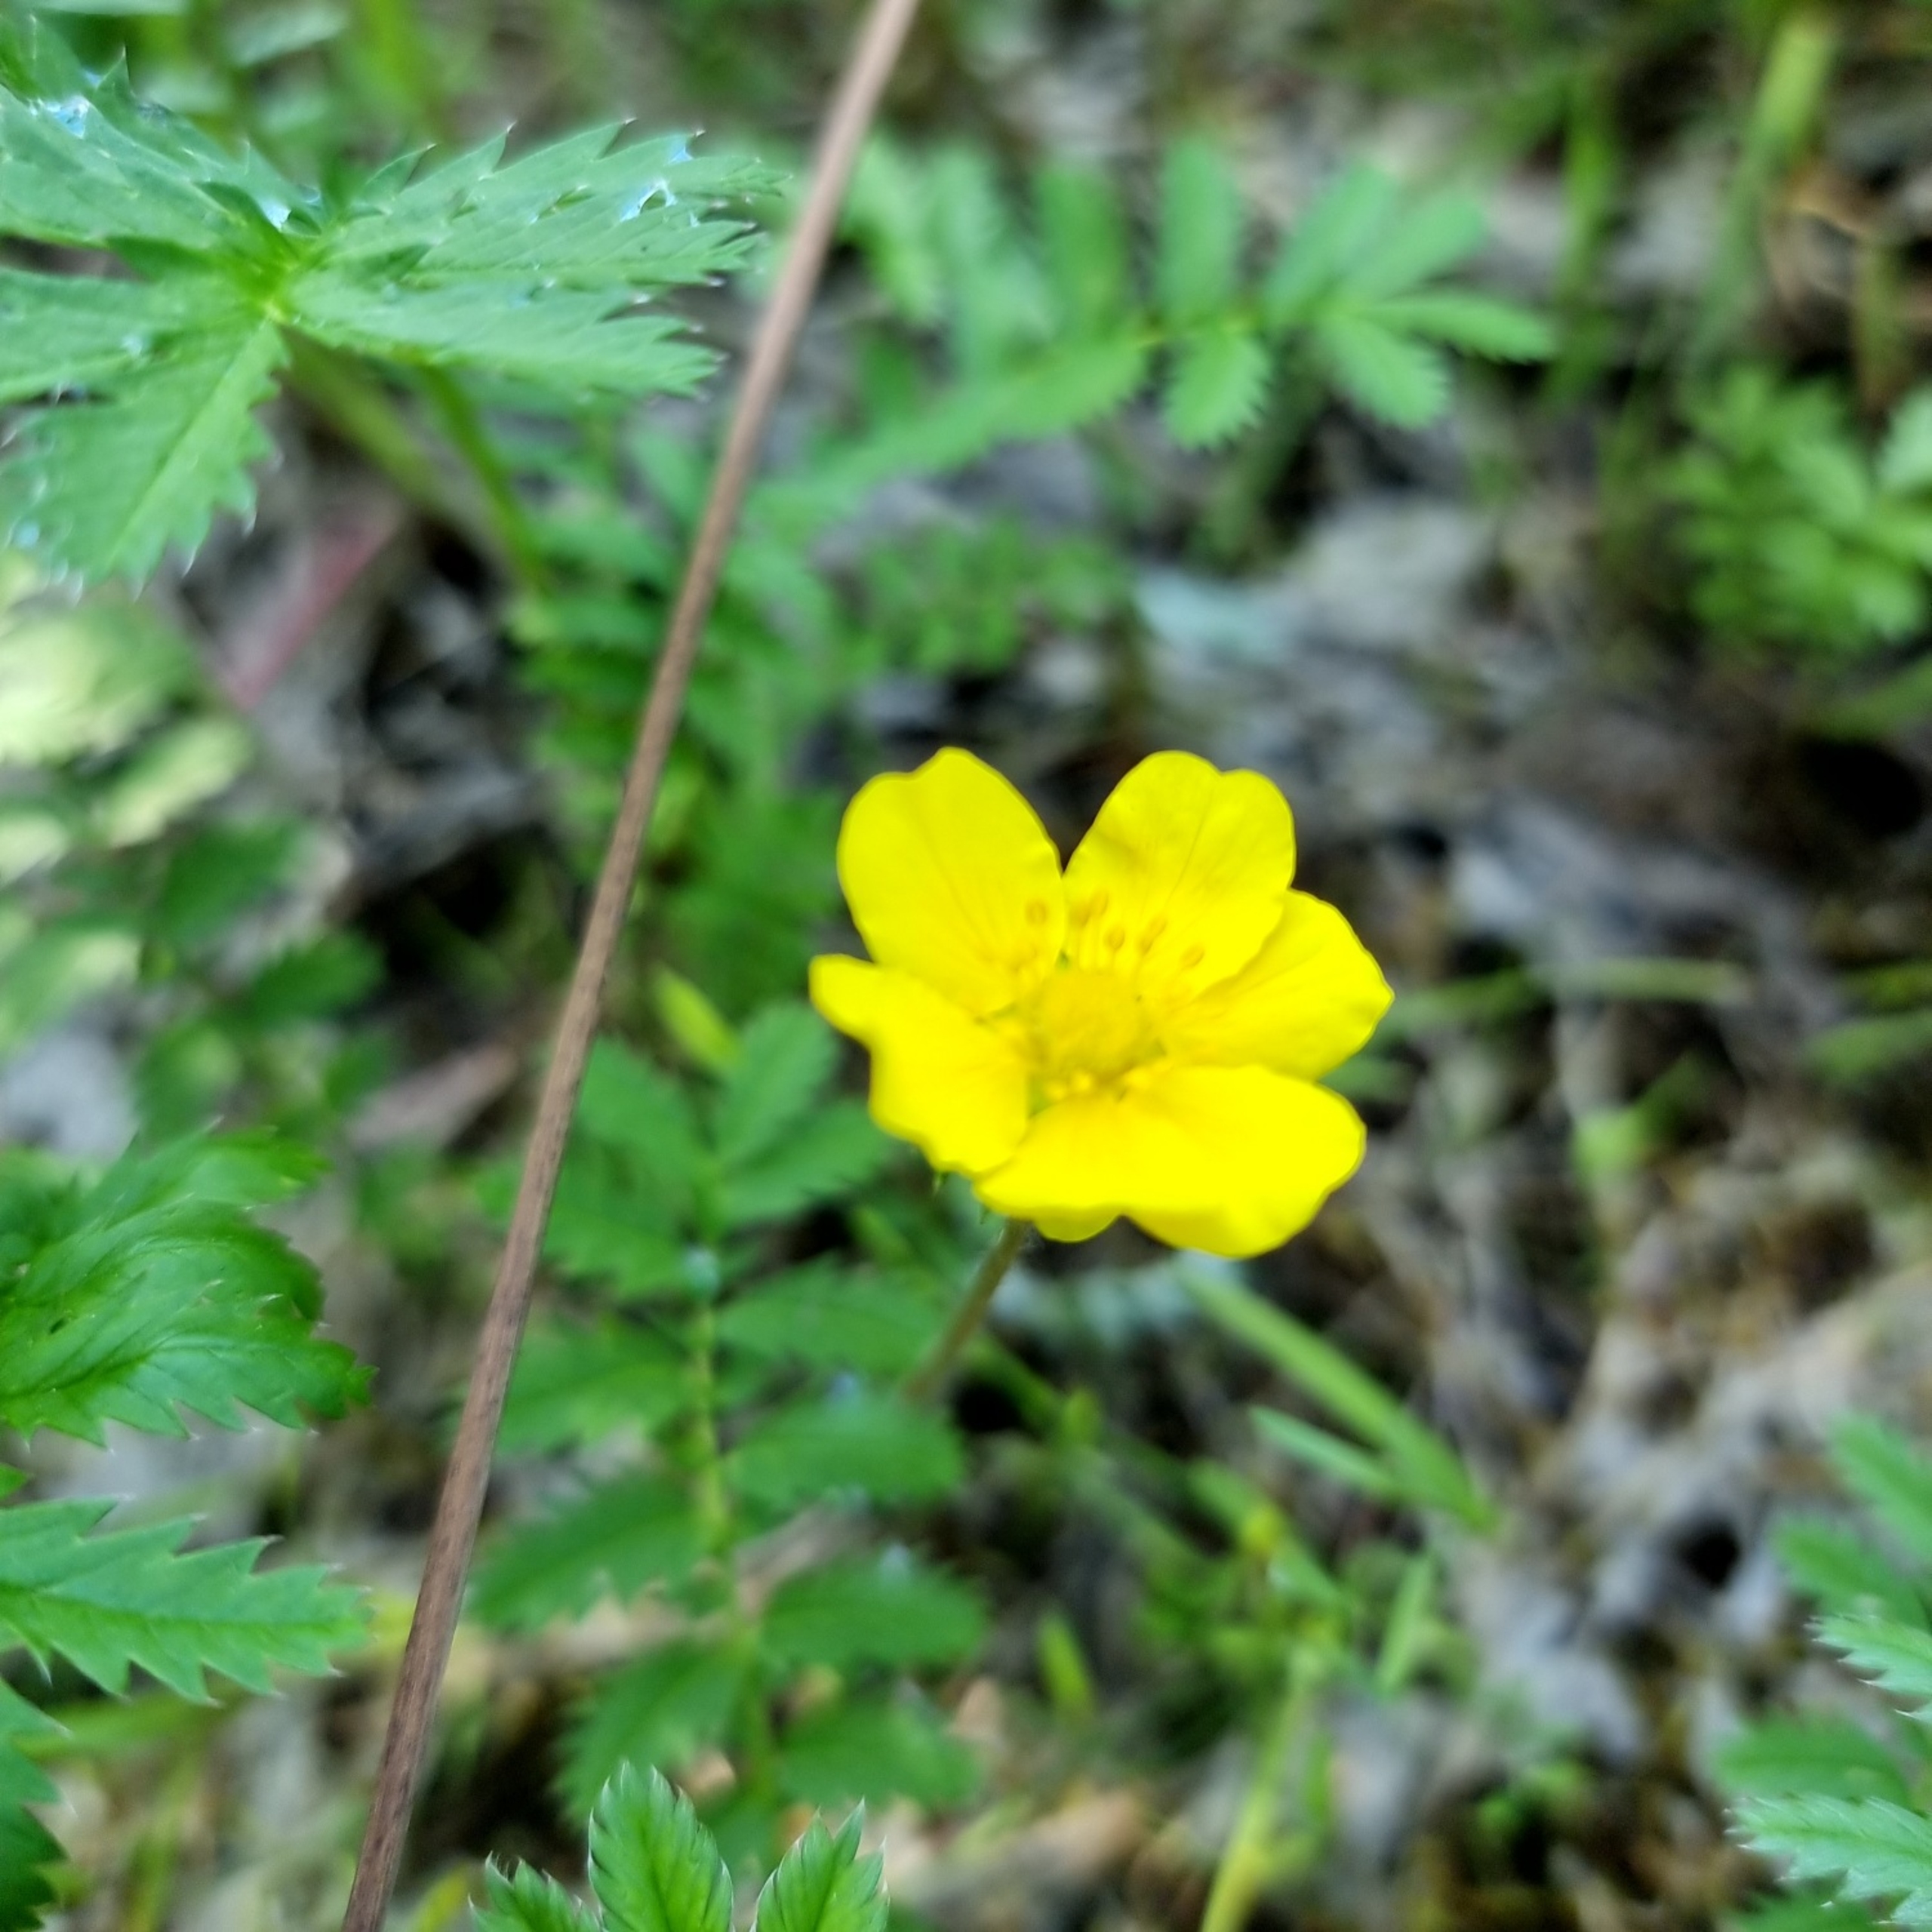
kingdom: Plantae
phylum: Tracheophyta
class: Magnoliopsida
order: Rosales
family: Rosaceae
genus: Argentina
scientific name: Argentina anserina
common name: Gåsepotentil
